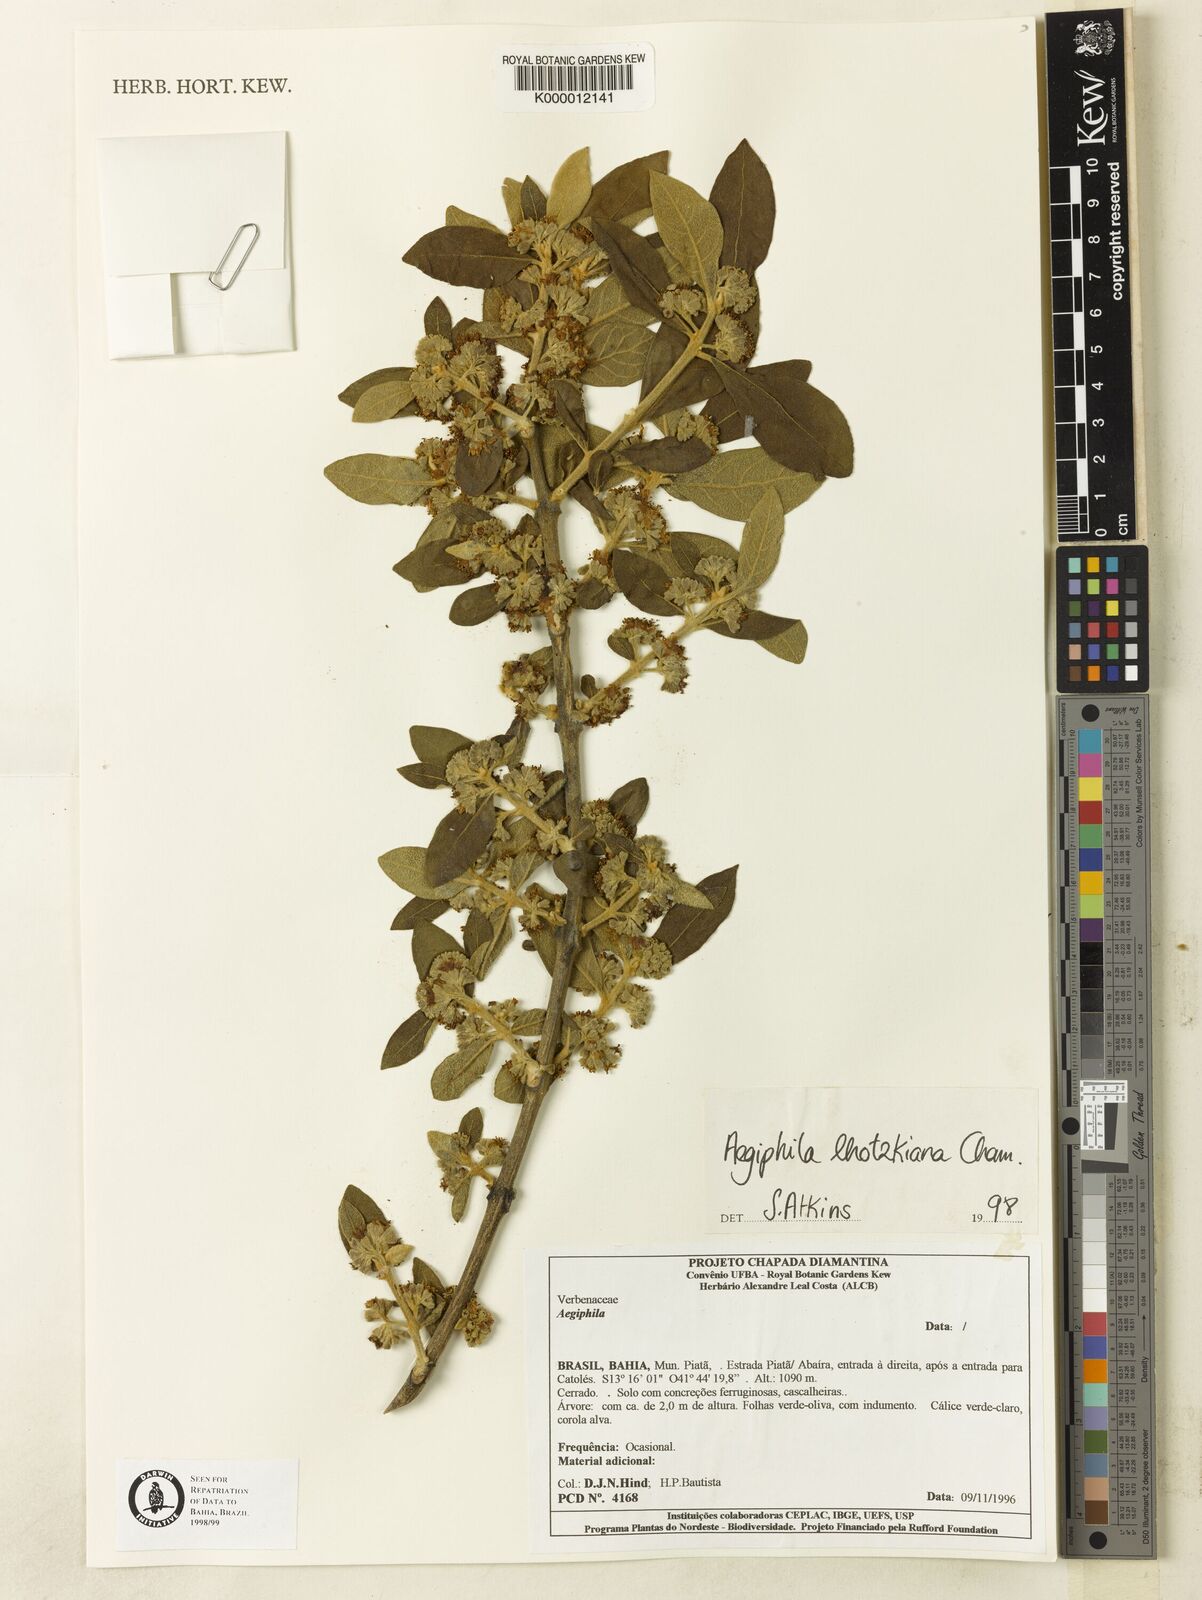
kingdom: Plantae
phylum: Tracheophyta
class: Magnoliopsida
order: Lamiales
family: Lamiaceae
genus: Aegiphila
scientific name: Aegiphila verticillata
